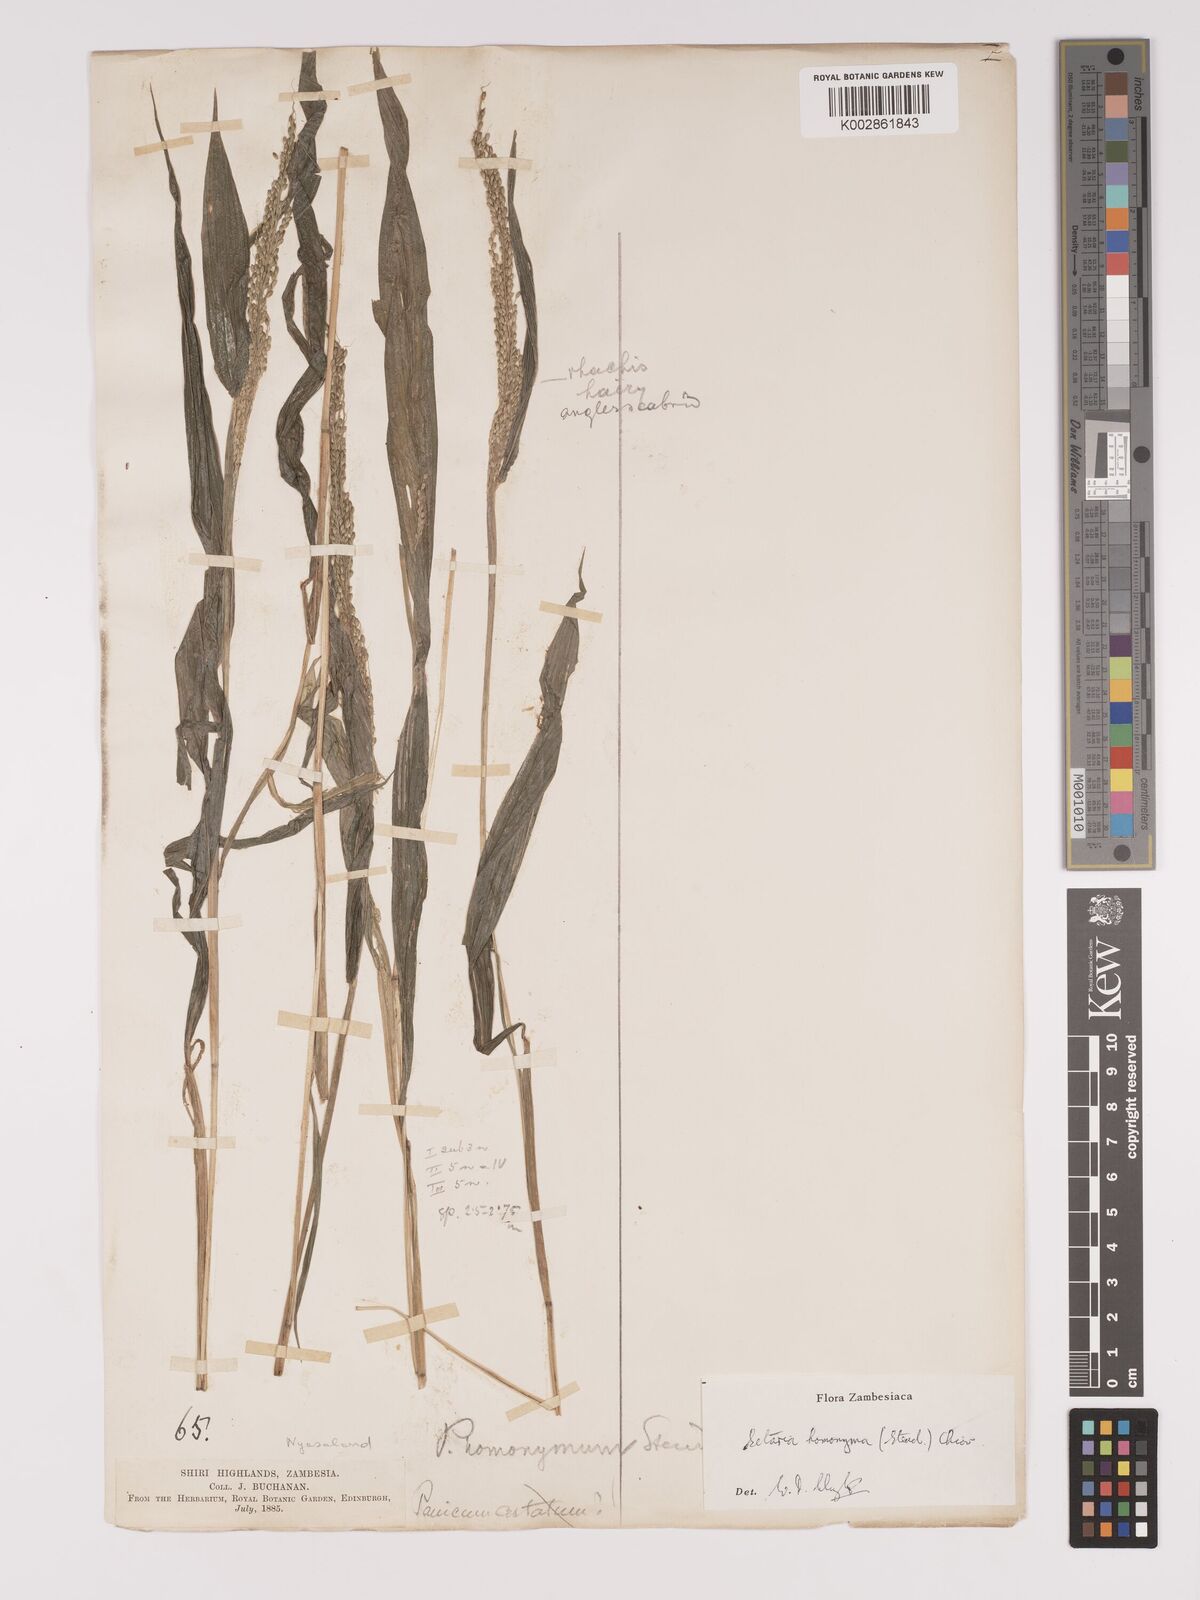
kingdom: Plantae
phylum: Tracheophyta
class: Liliopsida
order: Poales
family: Poaceae
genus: Setaria
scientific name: Setaria homonyma
